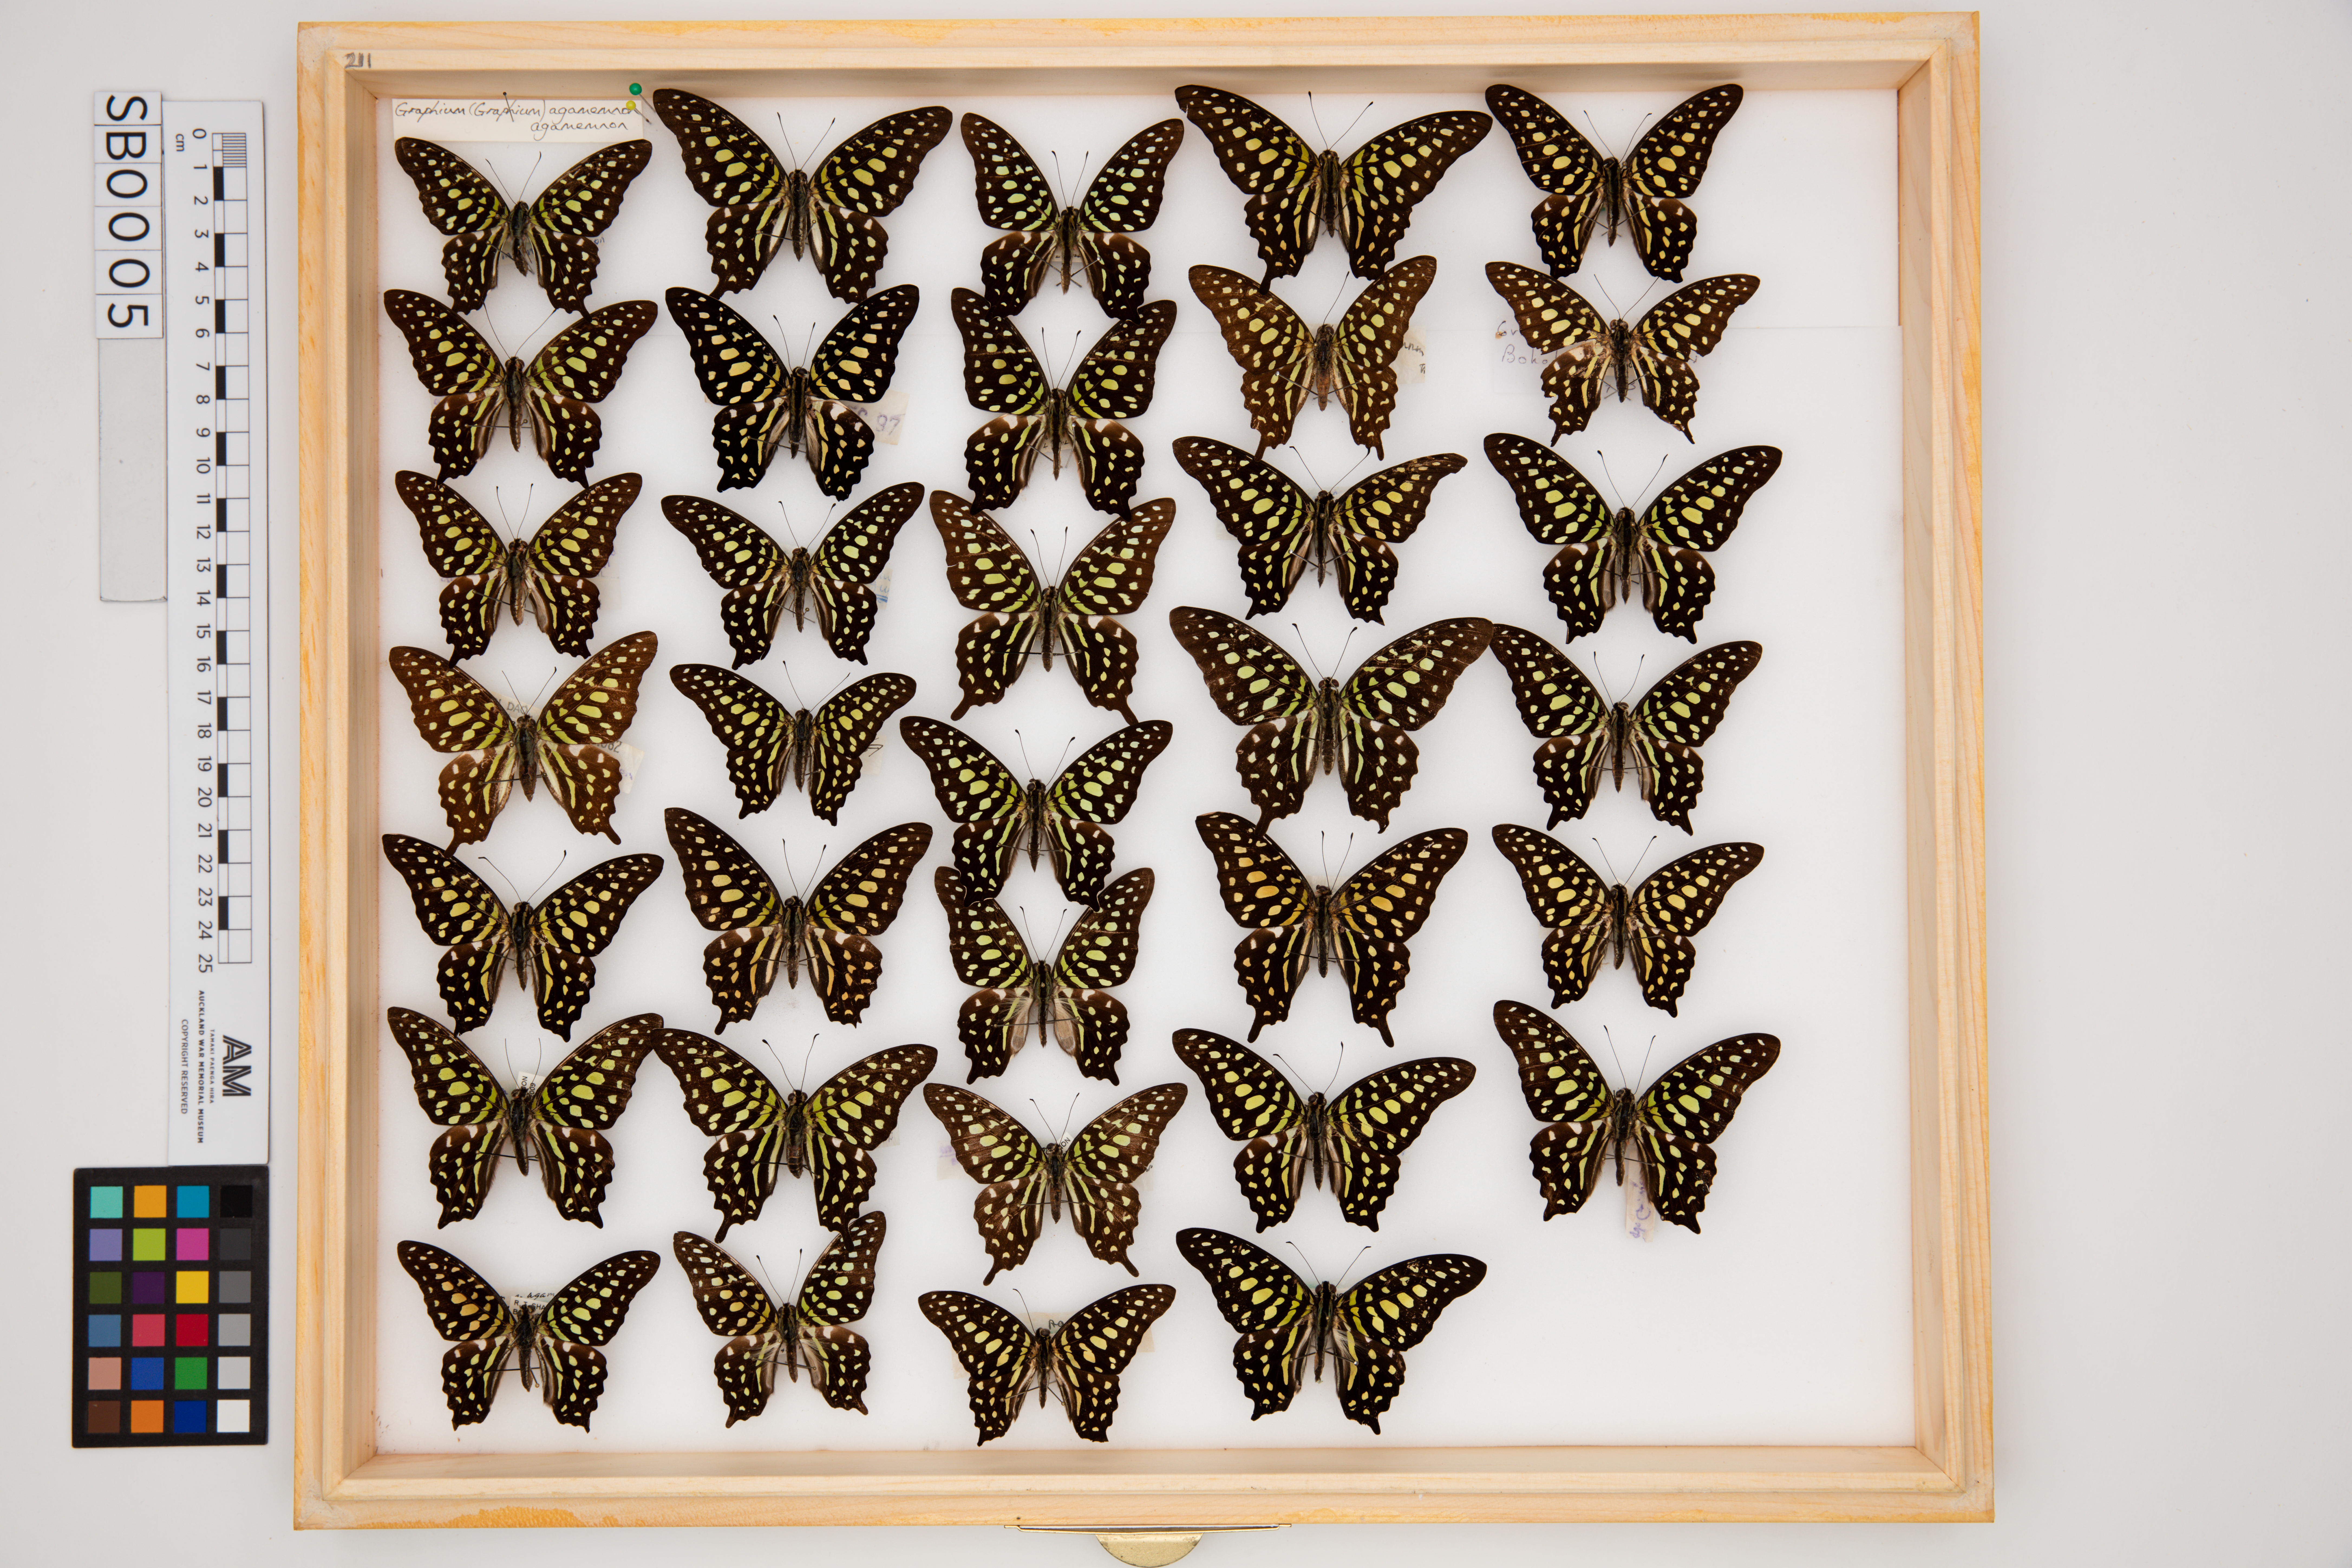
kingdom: Animalia
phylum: Arthropoda
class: Insecta
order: Lepidoptera
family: Papilionidae
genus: Graphium
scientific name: Graphium agamemnon
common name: Tailed jay
